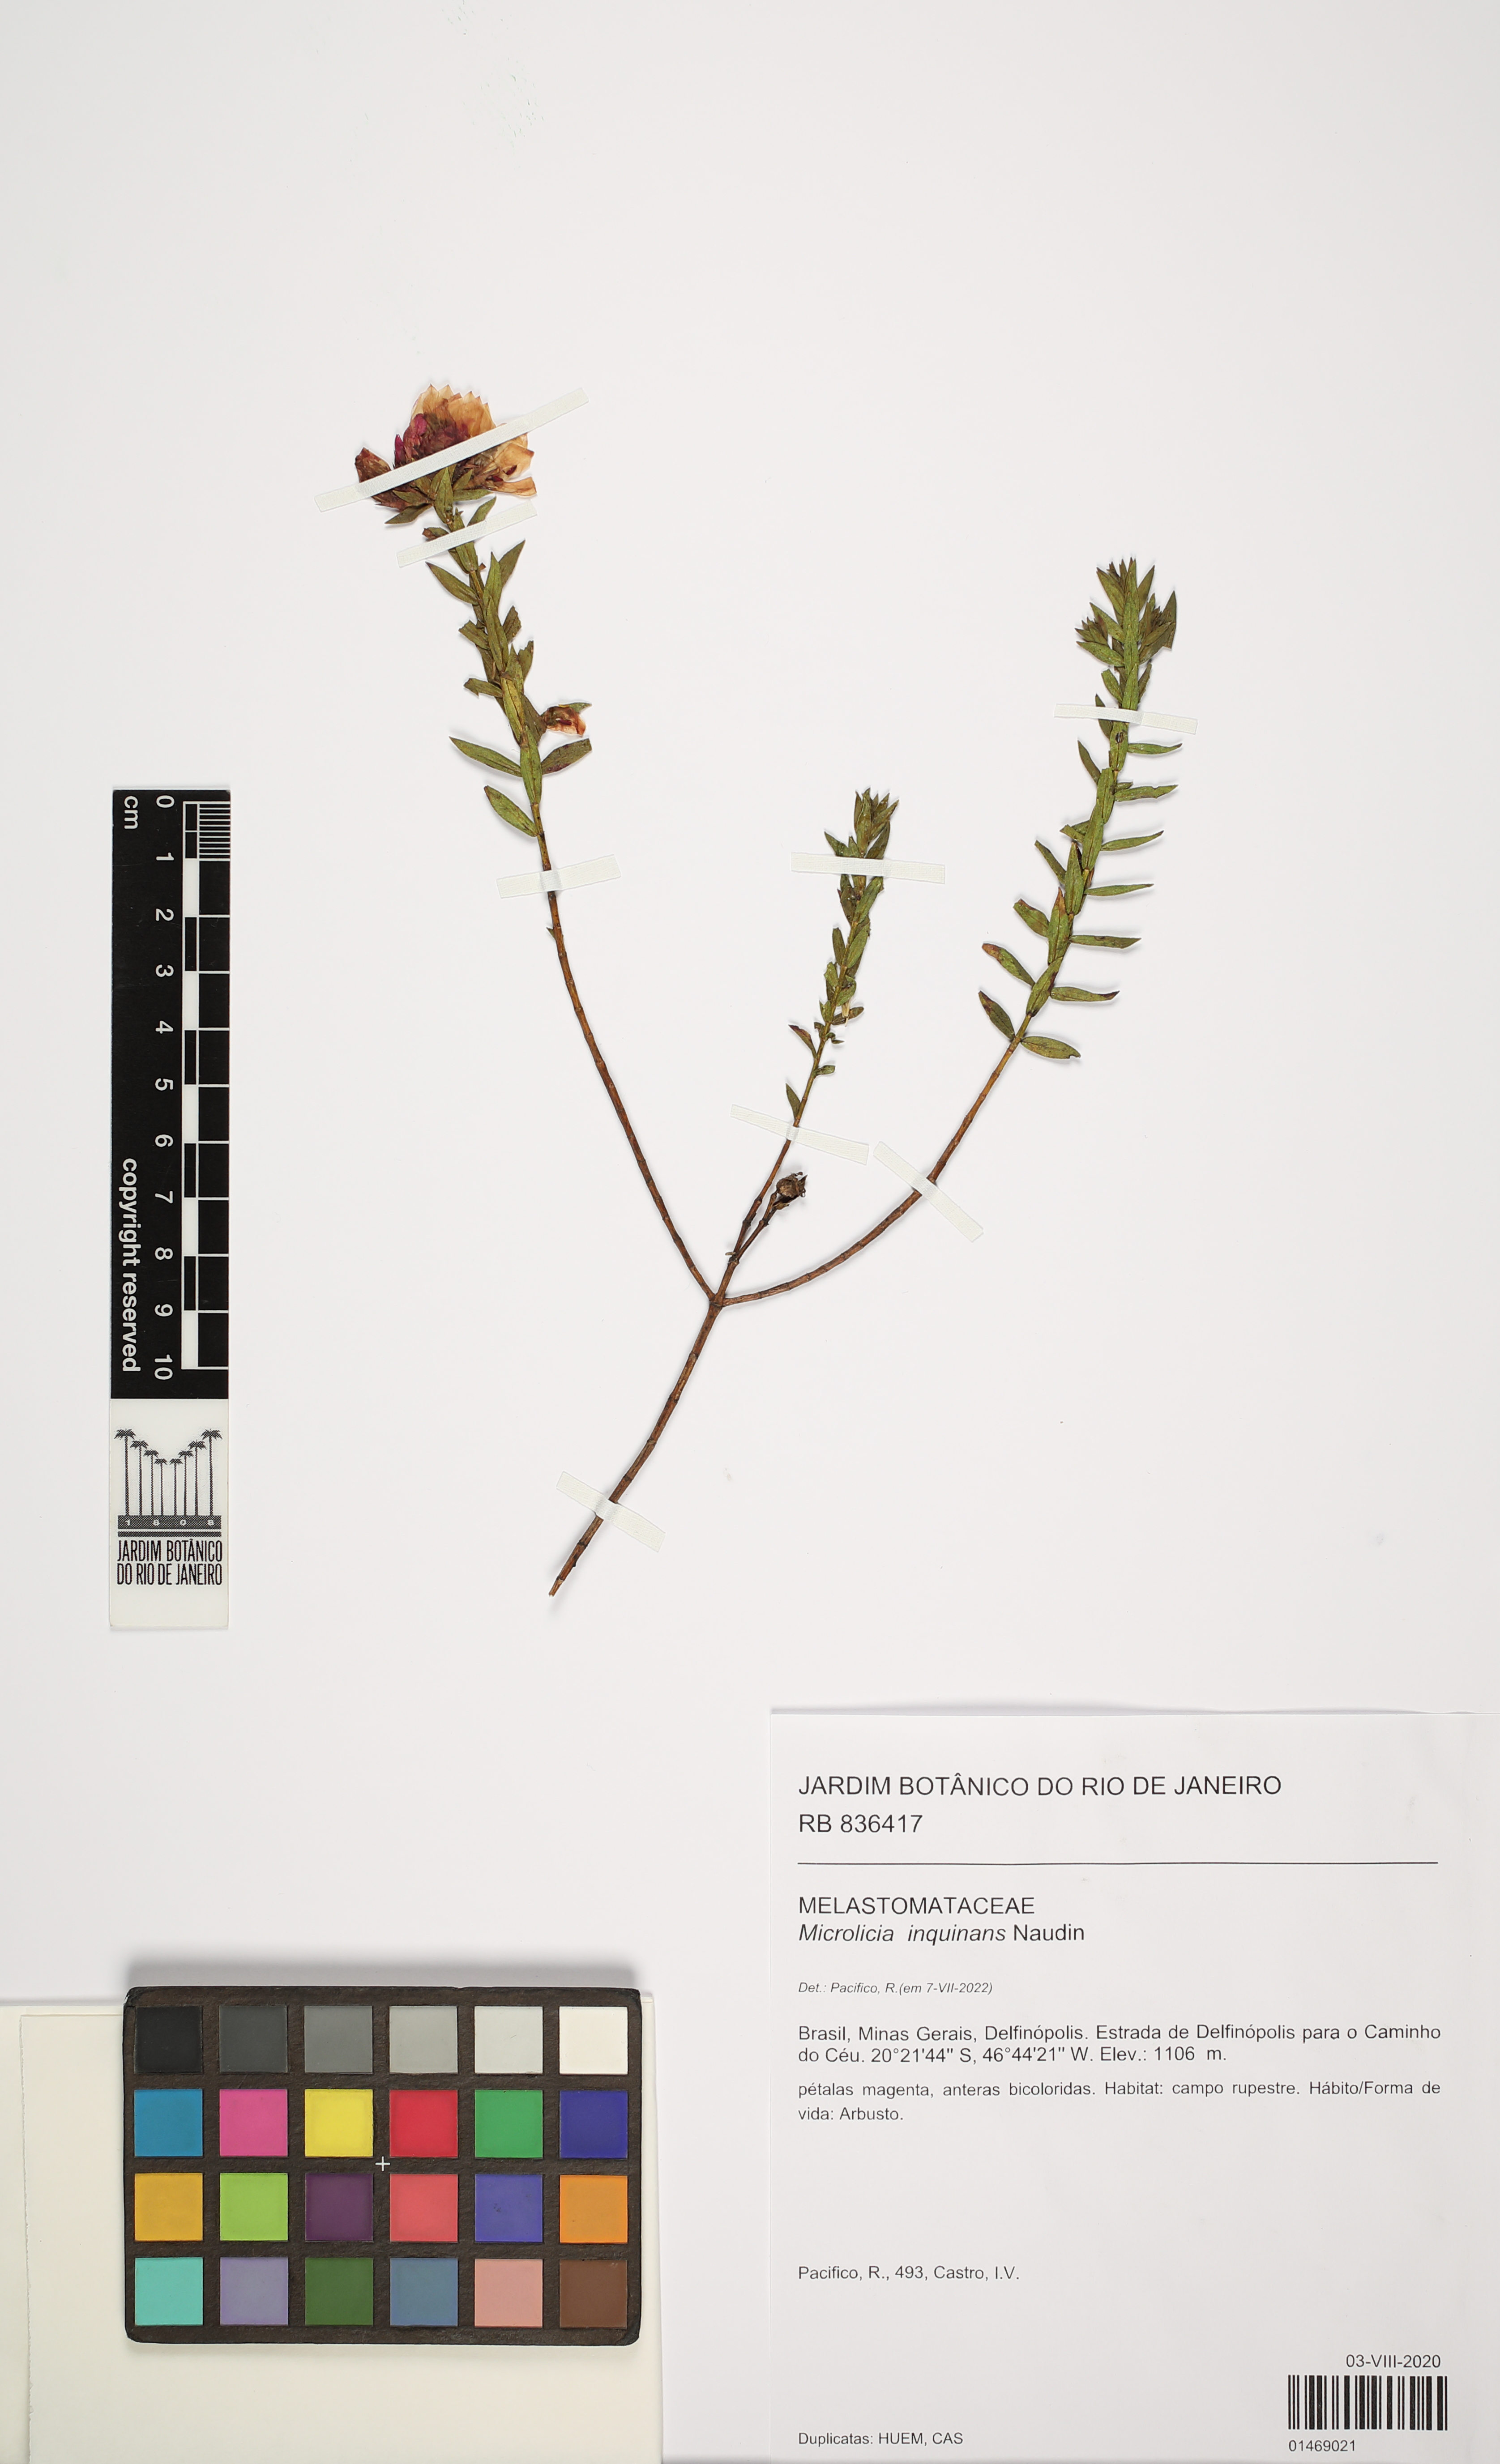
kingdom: Plantae
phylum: Tracheophyta
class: Magnoliopsida
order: Myrtales
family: Melastomataceae
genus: Microlicia
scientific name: Microlicia inquinans
